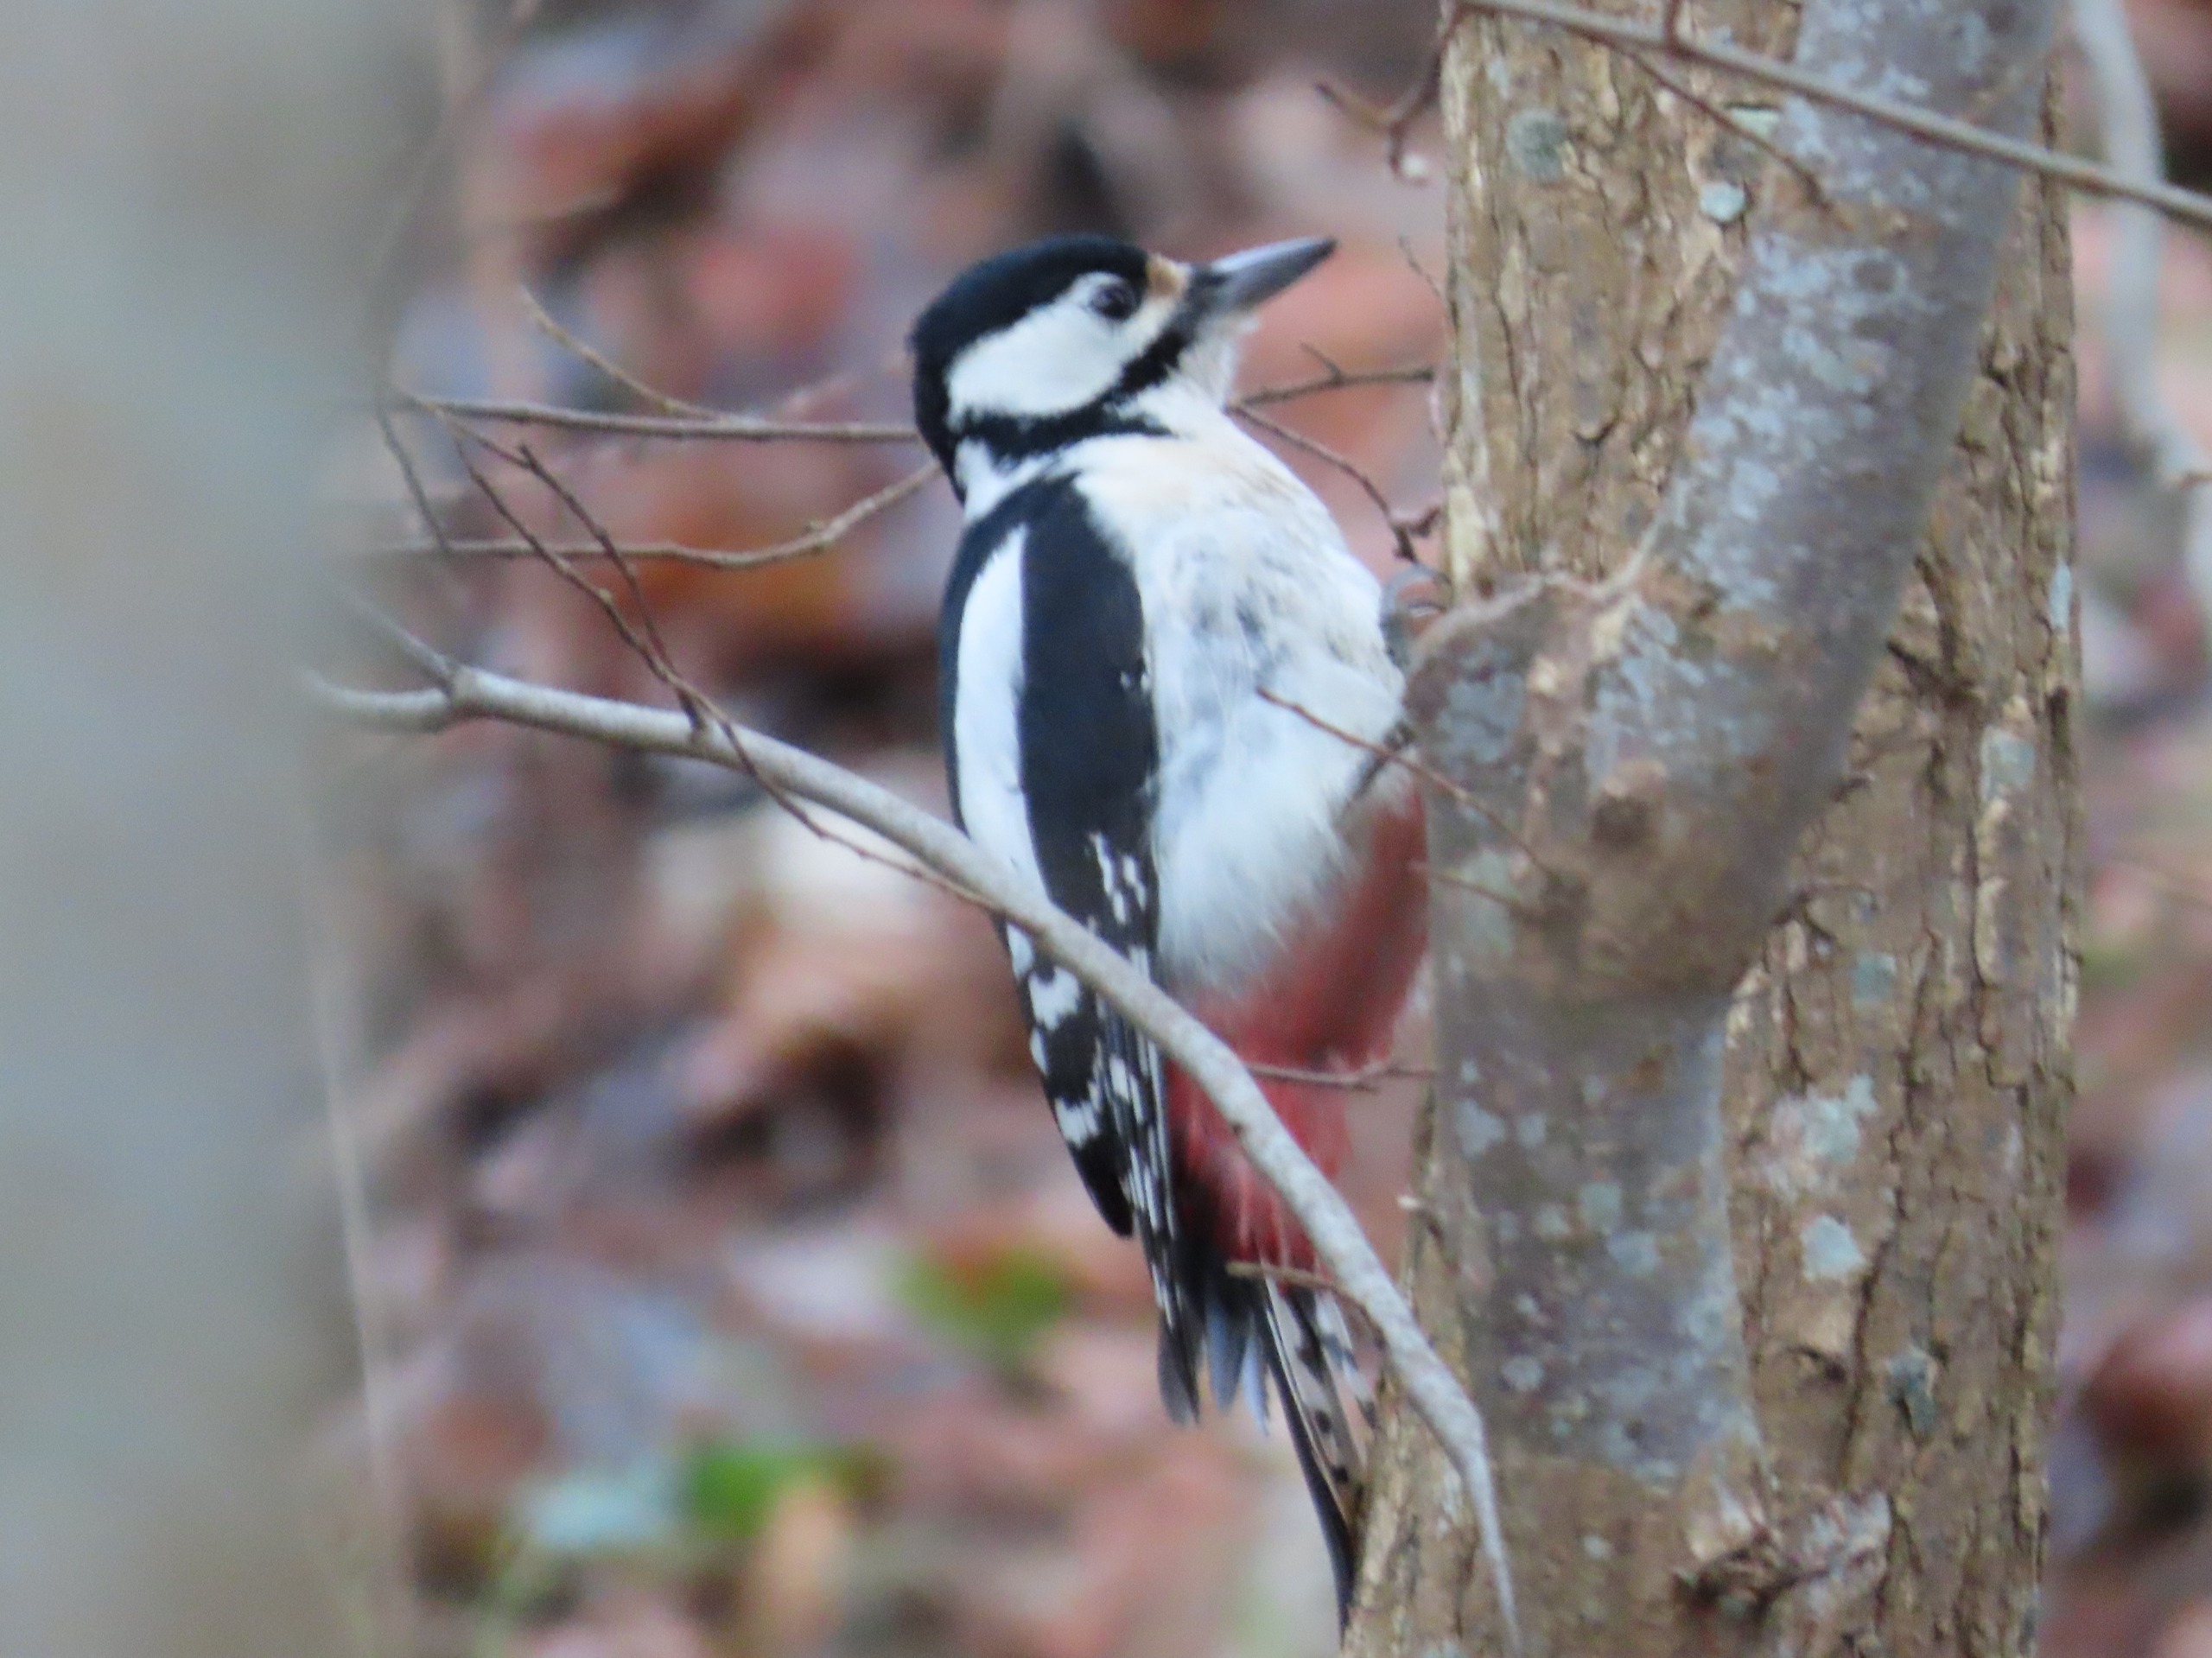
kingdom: Animalia
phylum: Chordata
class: Aves
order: Piciformes
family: Picidae
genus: Dendrocopos
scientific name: Dendrocopos major
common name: Stor flagspætte
